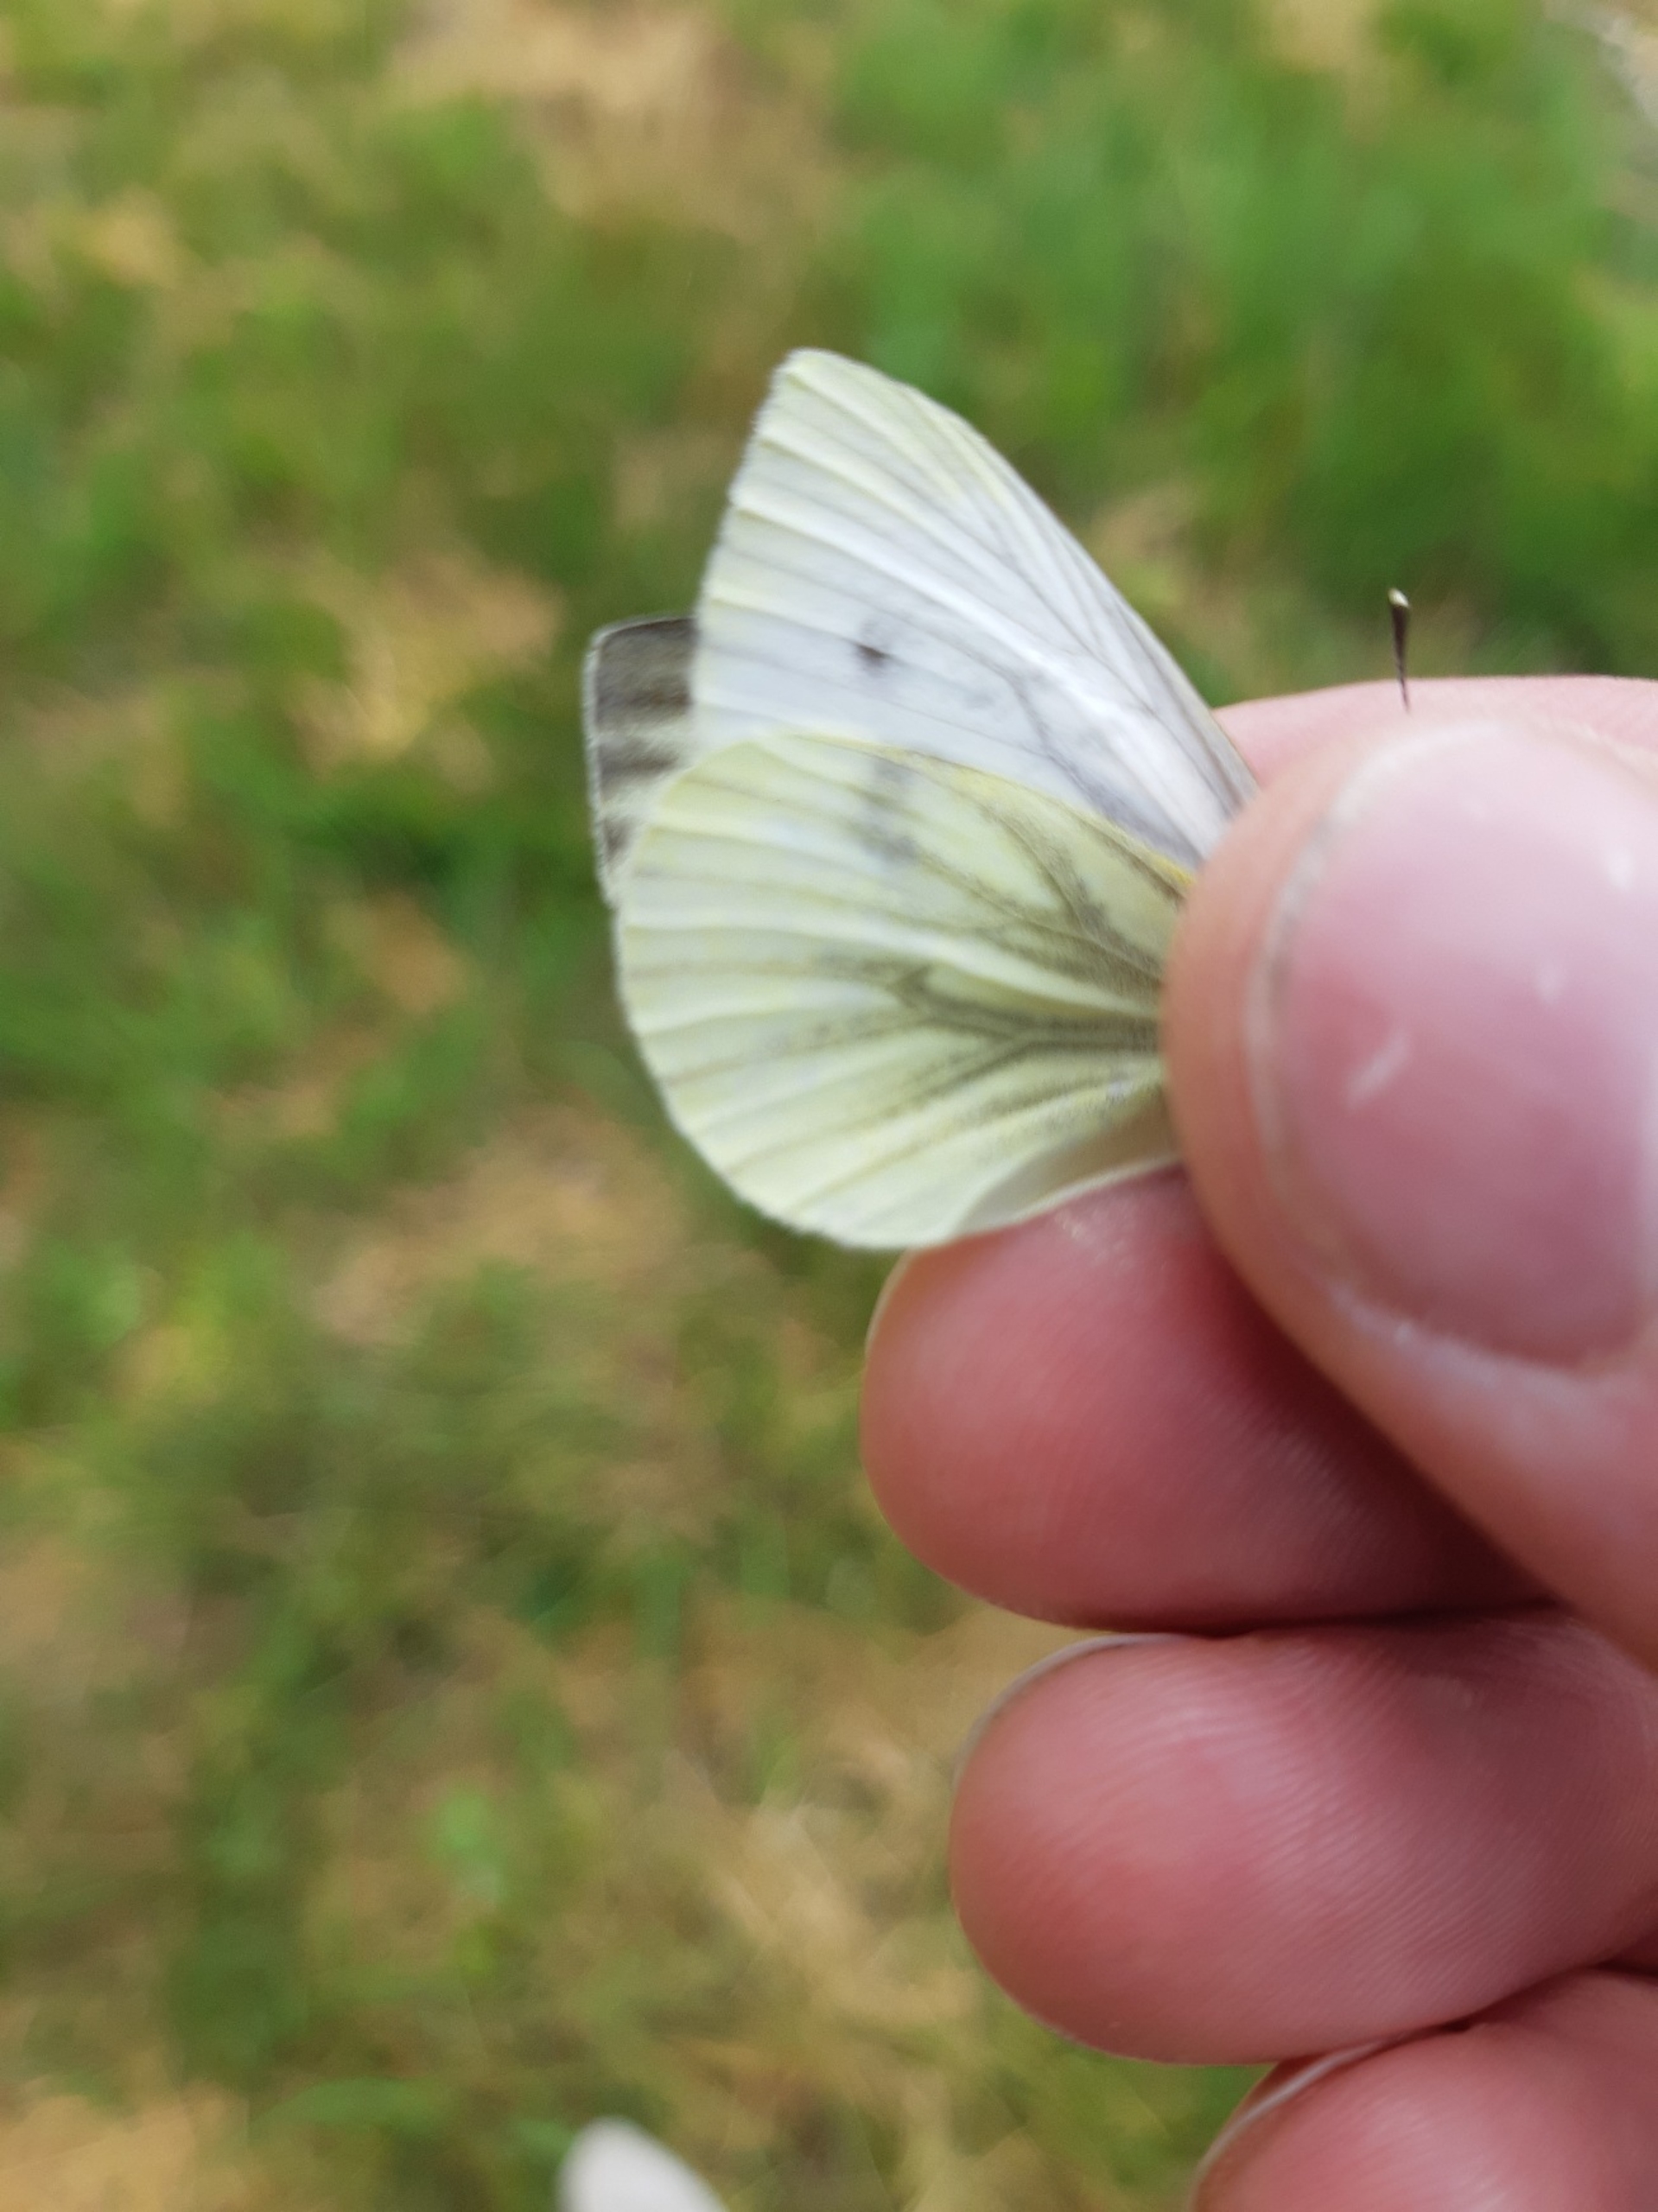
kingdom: Animalia
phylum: Arthropoda
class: Insecta
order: Lepidoptera
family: Pieridae
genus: Pieris
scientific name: Pieris napi
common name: Grønåret kålsommerfugl
